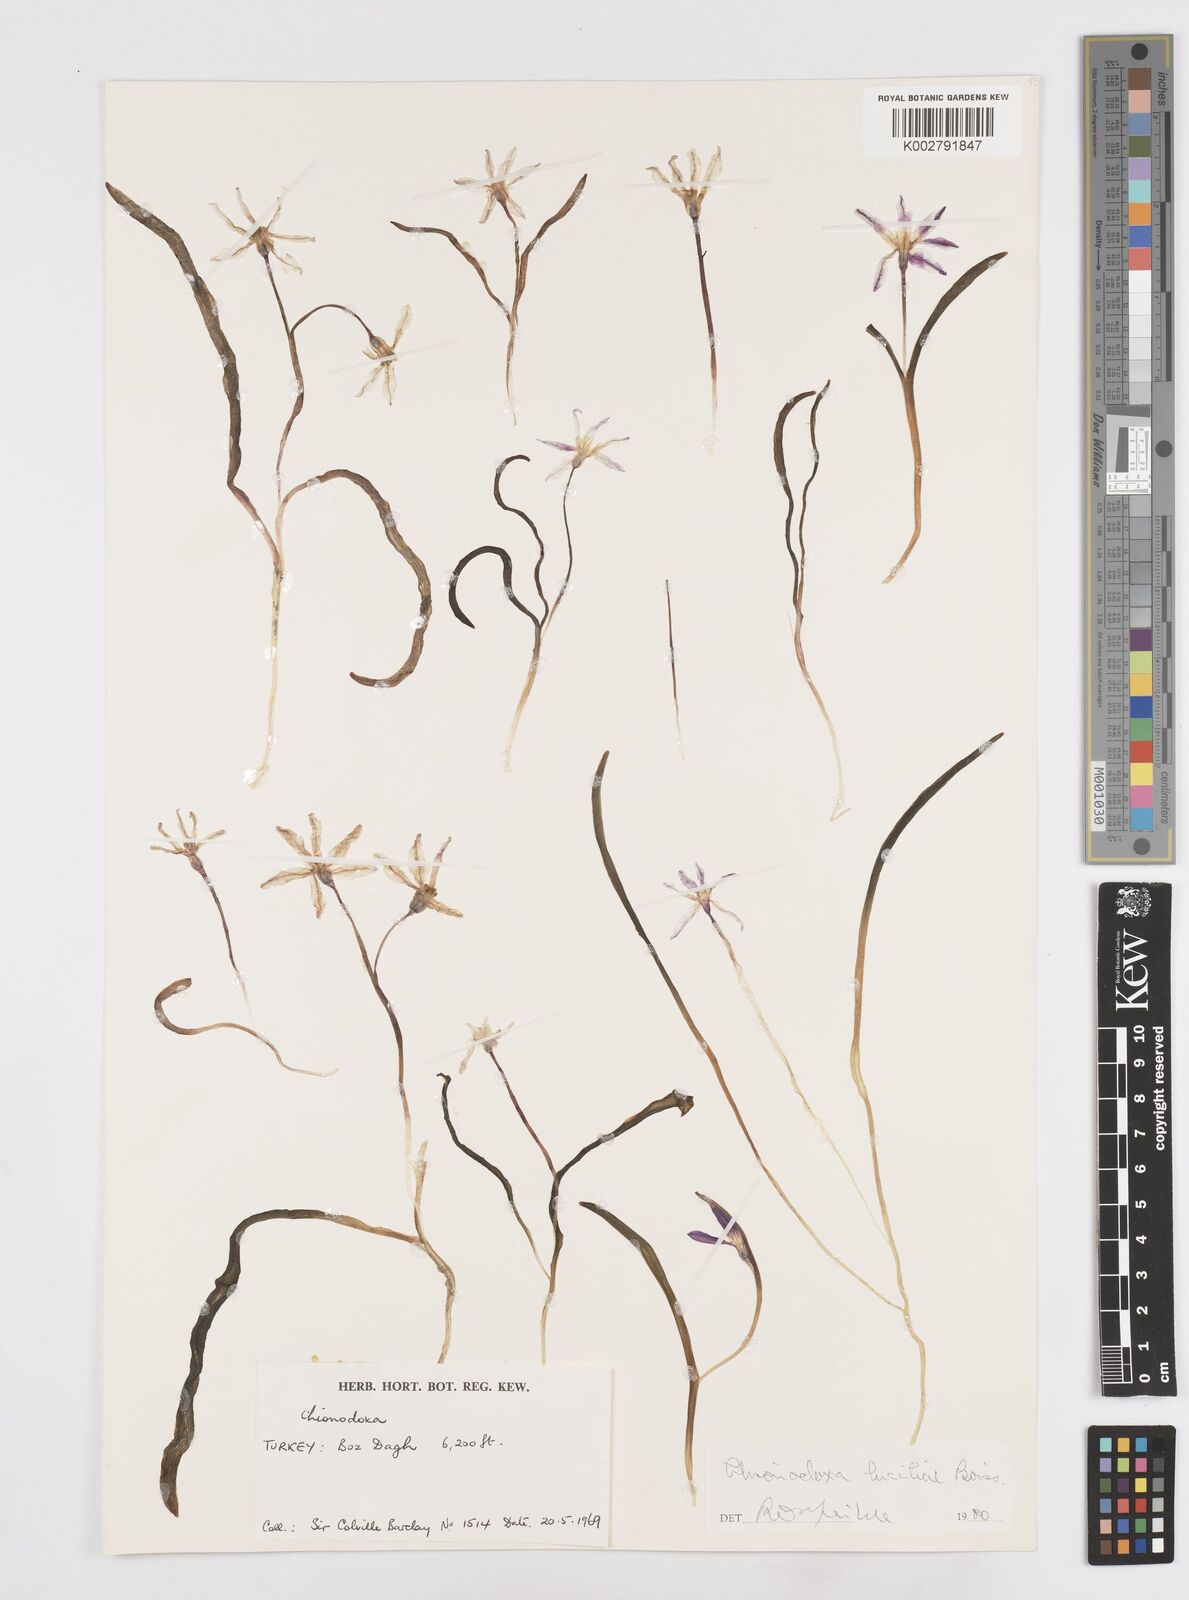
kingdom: Plantae
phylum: Tracheophyta
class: Liliopsida
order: Asparagales
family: Asparagaceae
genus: Scilla
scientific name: Scilla luciliae
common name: Boissier's glory-of-the-snow
